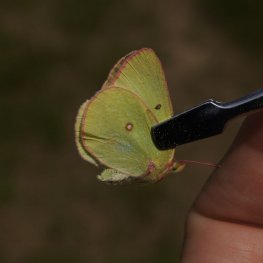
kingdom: Animalia
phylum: Arthropoda
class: Insecta
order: Lepidoptera
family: Pieridae
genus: Colias
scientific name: Colias interior
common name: Pink-edged Sulphur
